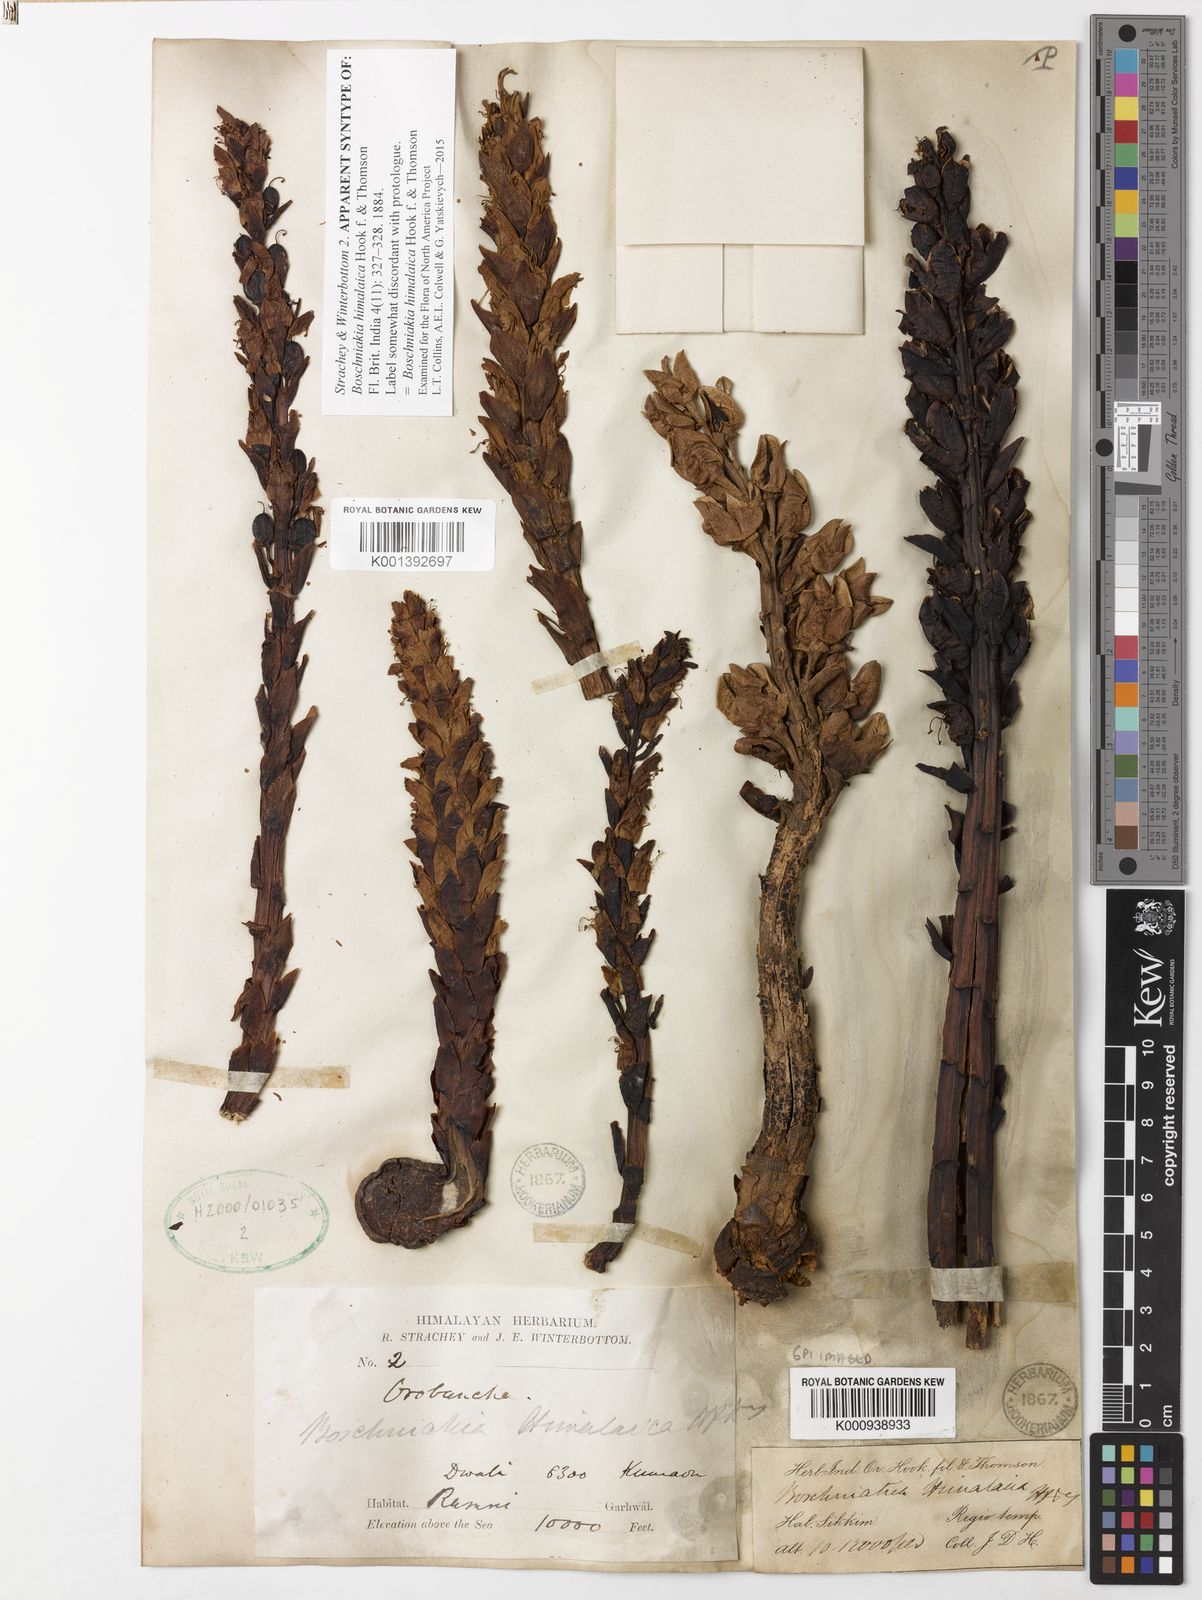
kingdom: Plantae
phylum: Tracheophyta
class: Magnoliopsida
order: Lamiales
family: Orobanchaceae
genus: Boschniakia
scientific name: Boschniakia himalaica
